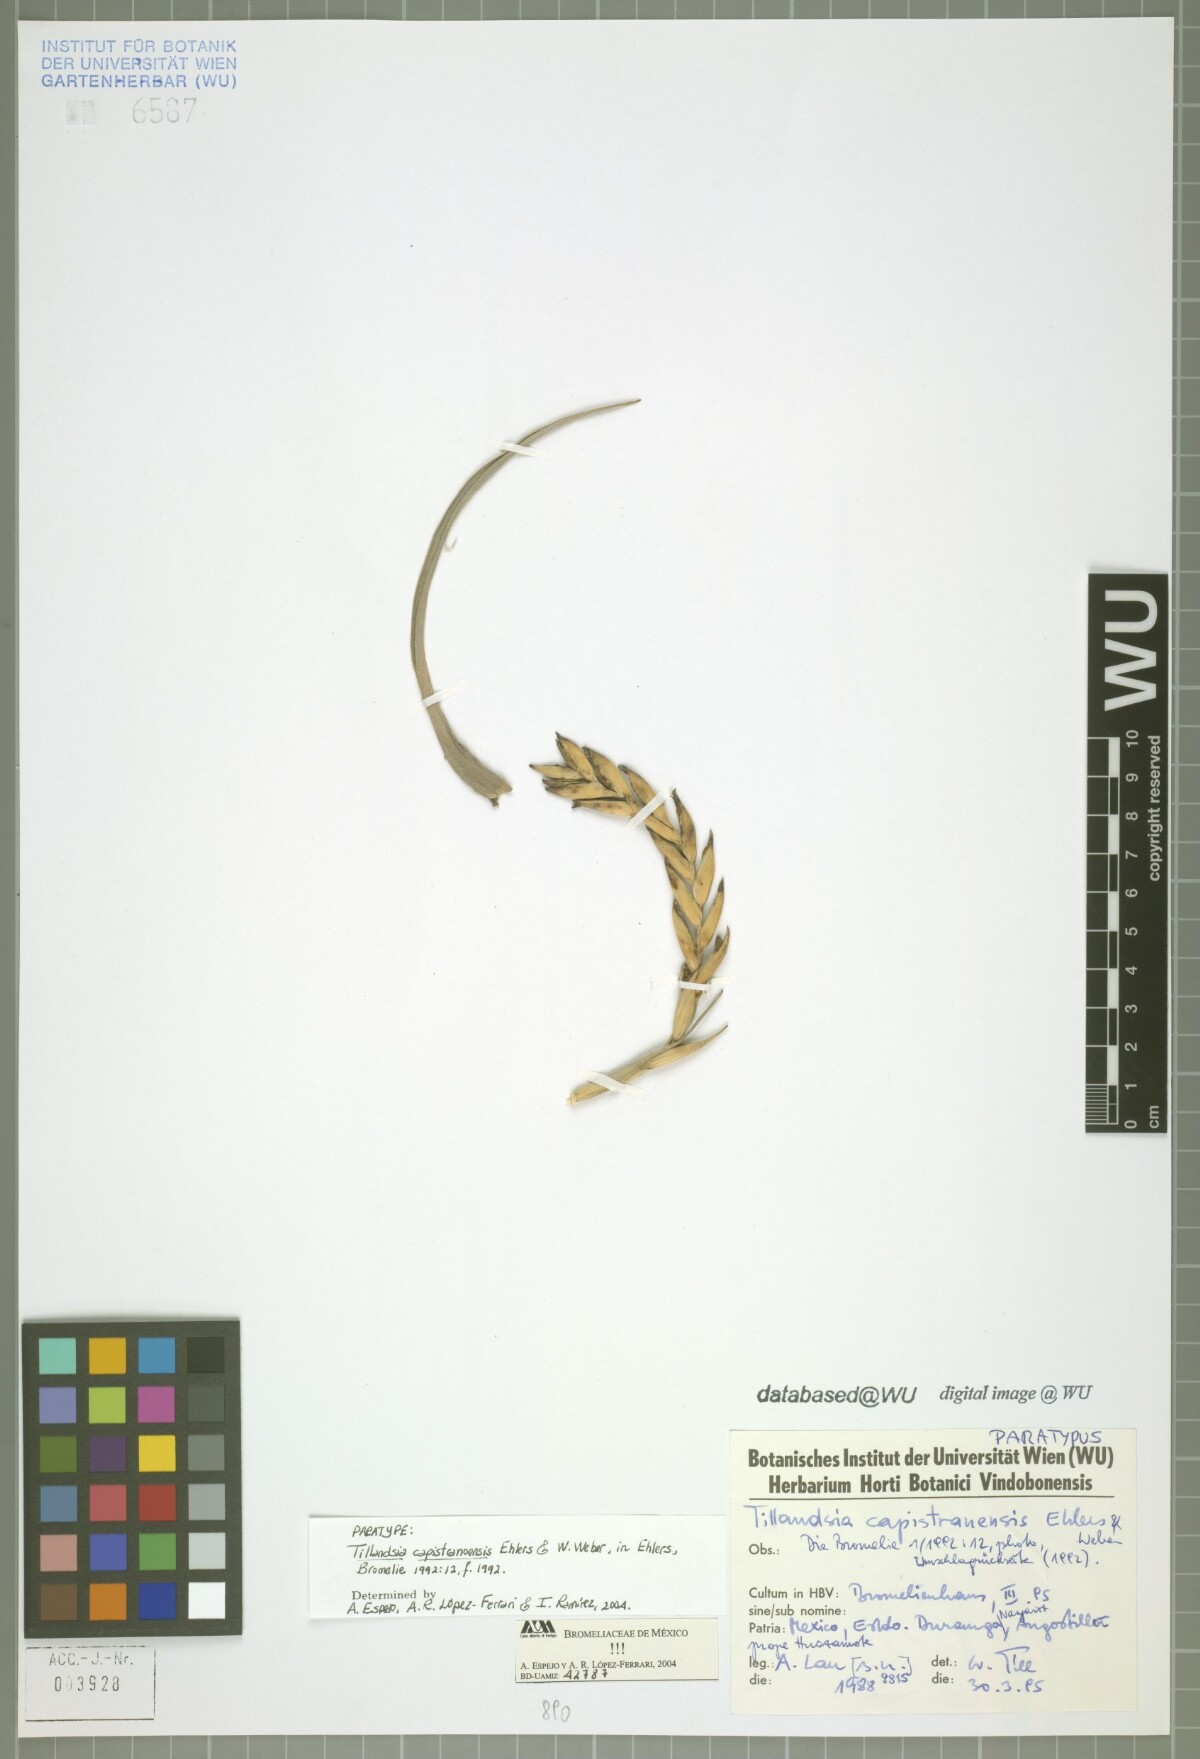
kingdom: Plantae
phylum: Tracheophyta
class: Liliopsida
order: Poales
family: Bromeliaceae
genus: Tillandsia
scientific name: Tillandsia capistranoensis
